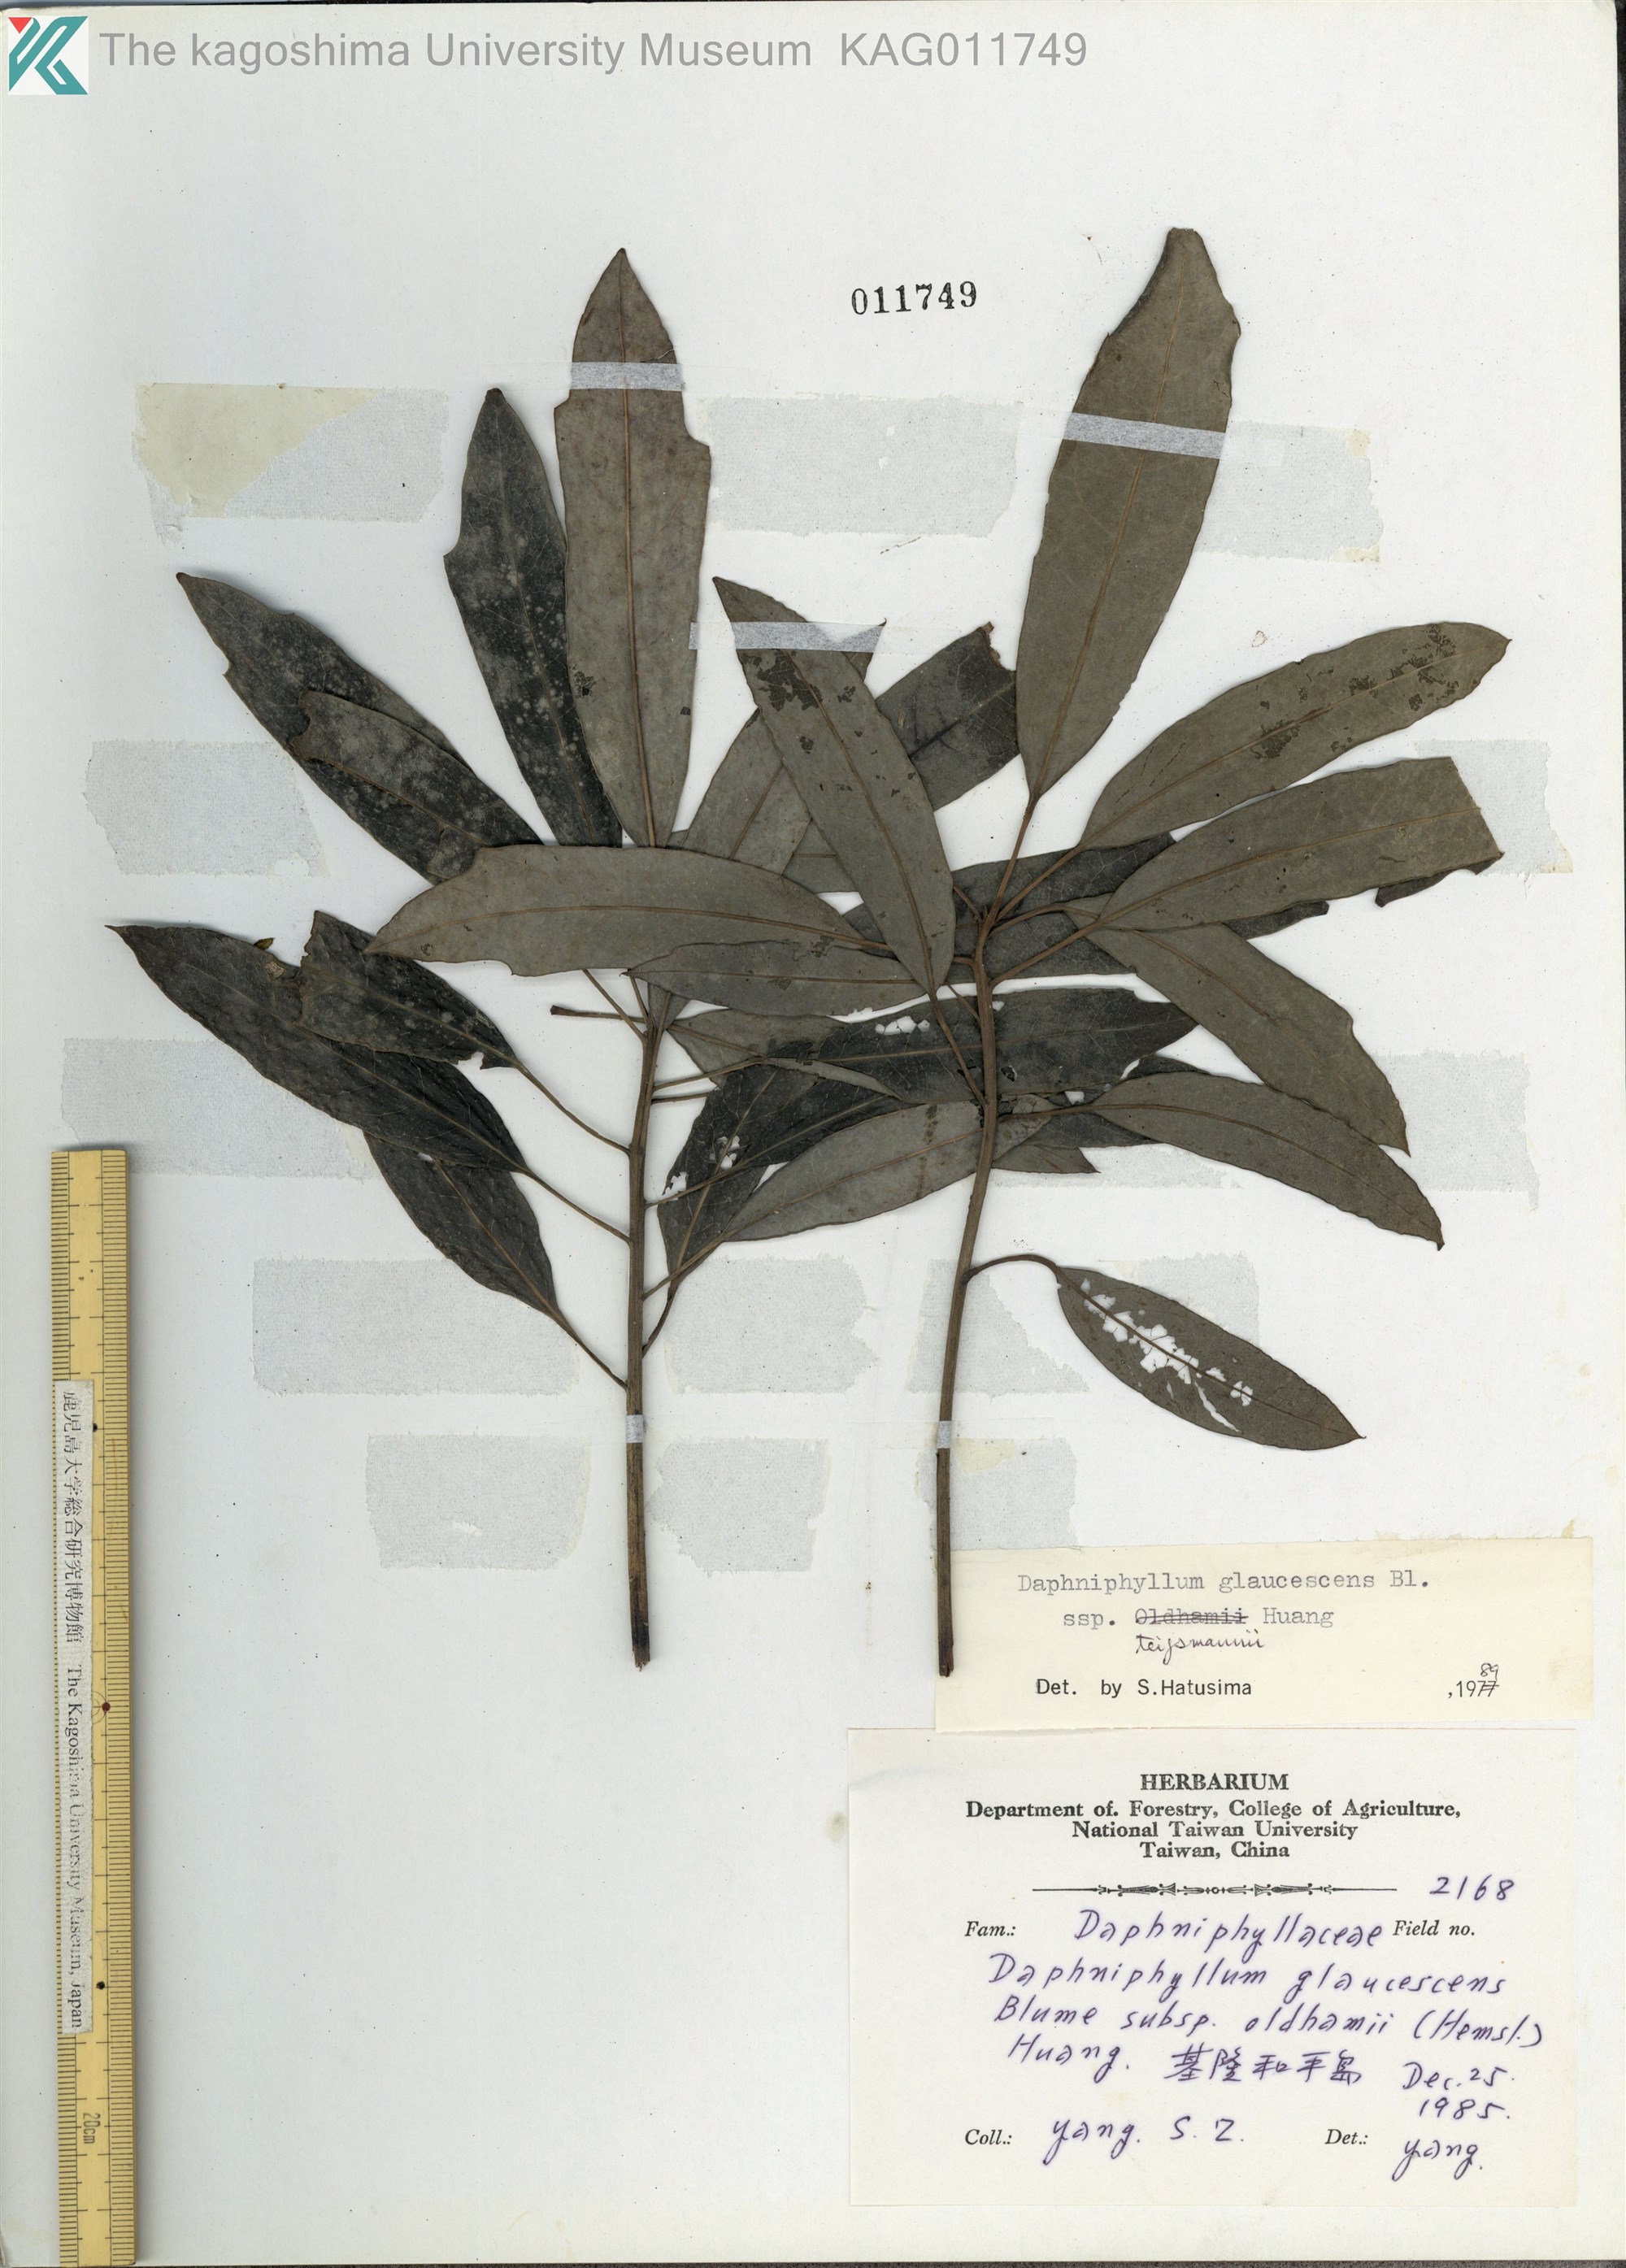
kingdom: Plantae
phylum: Tracheophyta
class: Magnoliopsida
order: Saxifragales
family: Daphniphyllaceae
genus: Daphniphyllum
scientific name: Daphniphyllum teijsmannii
